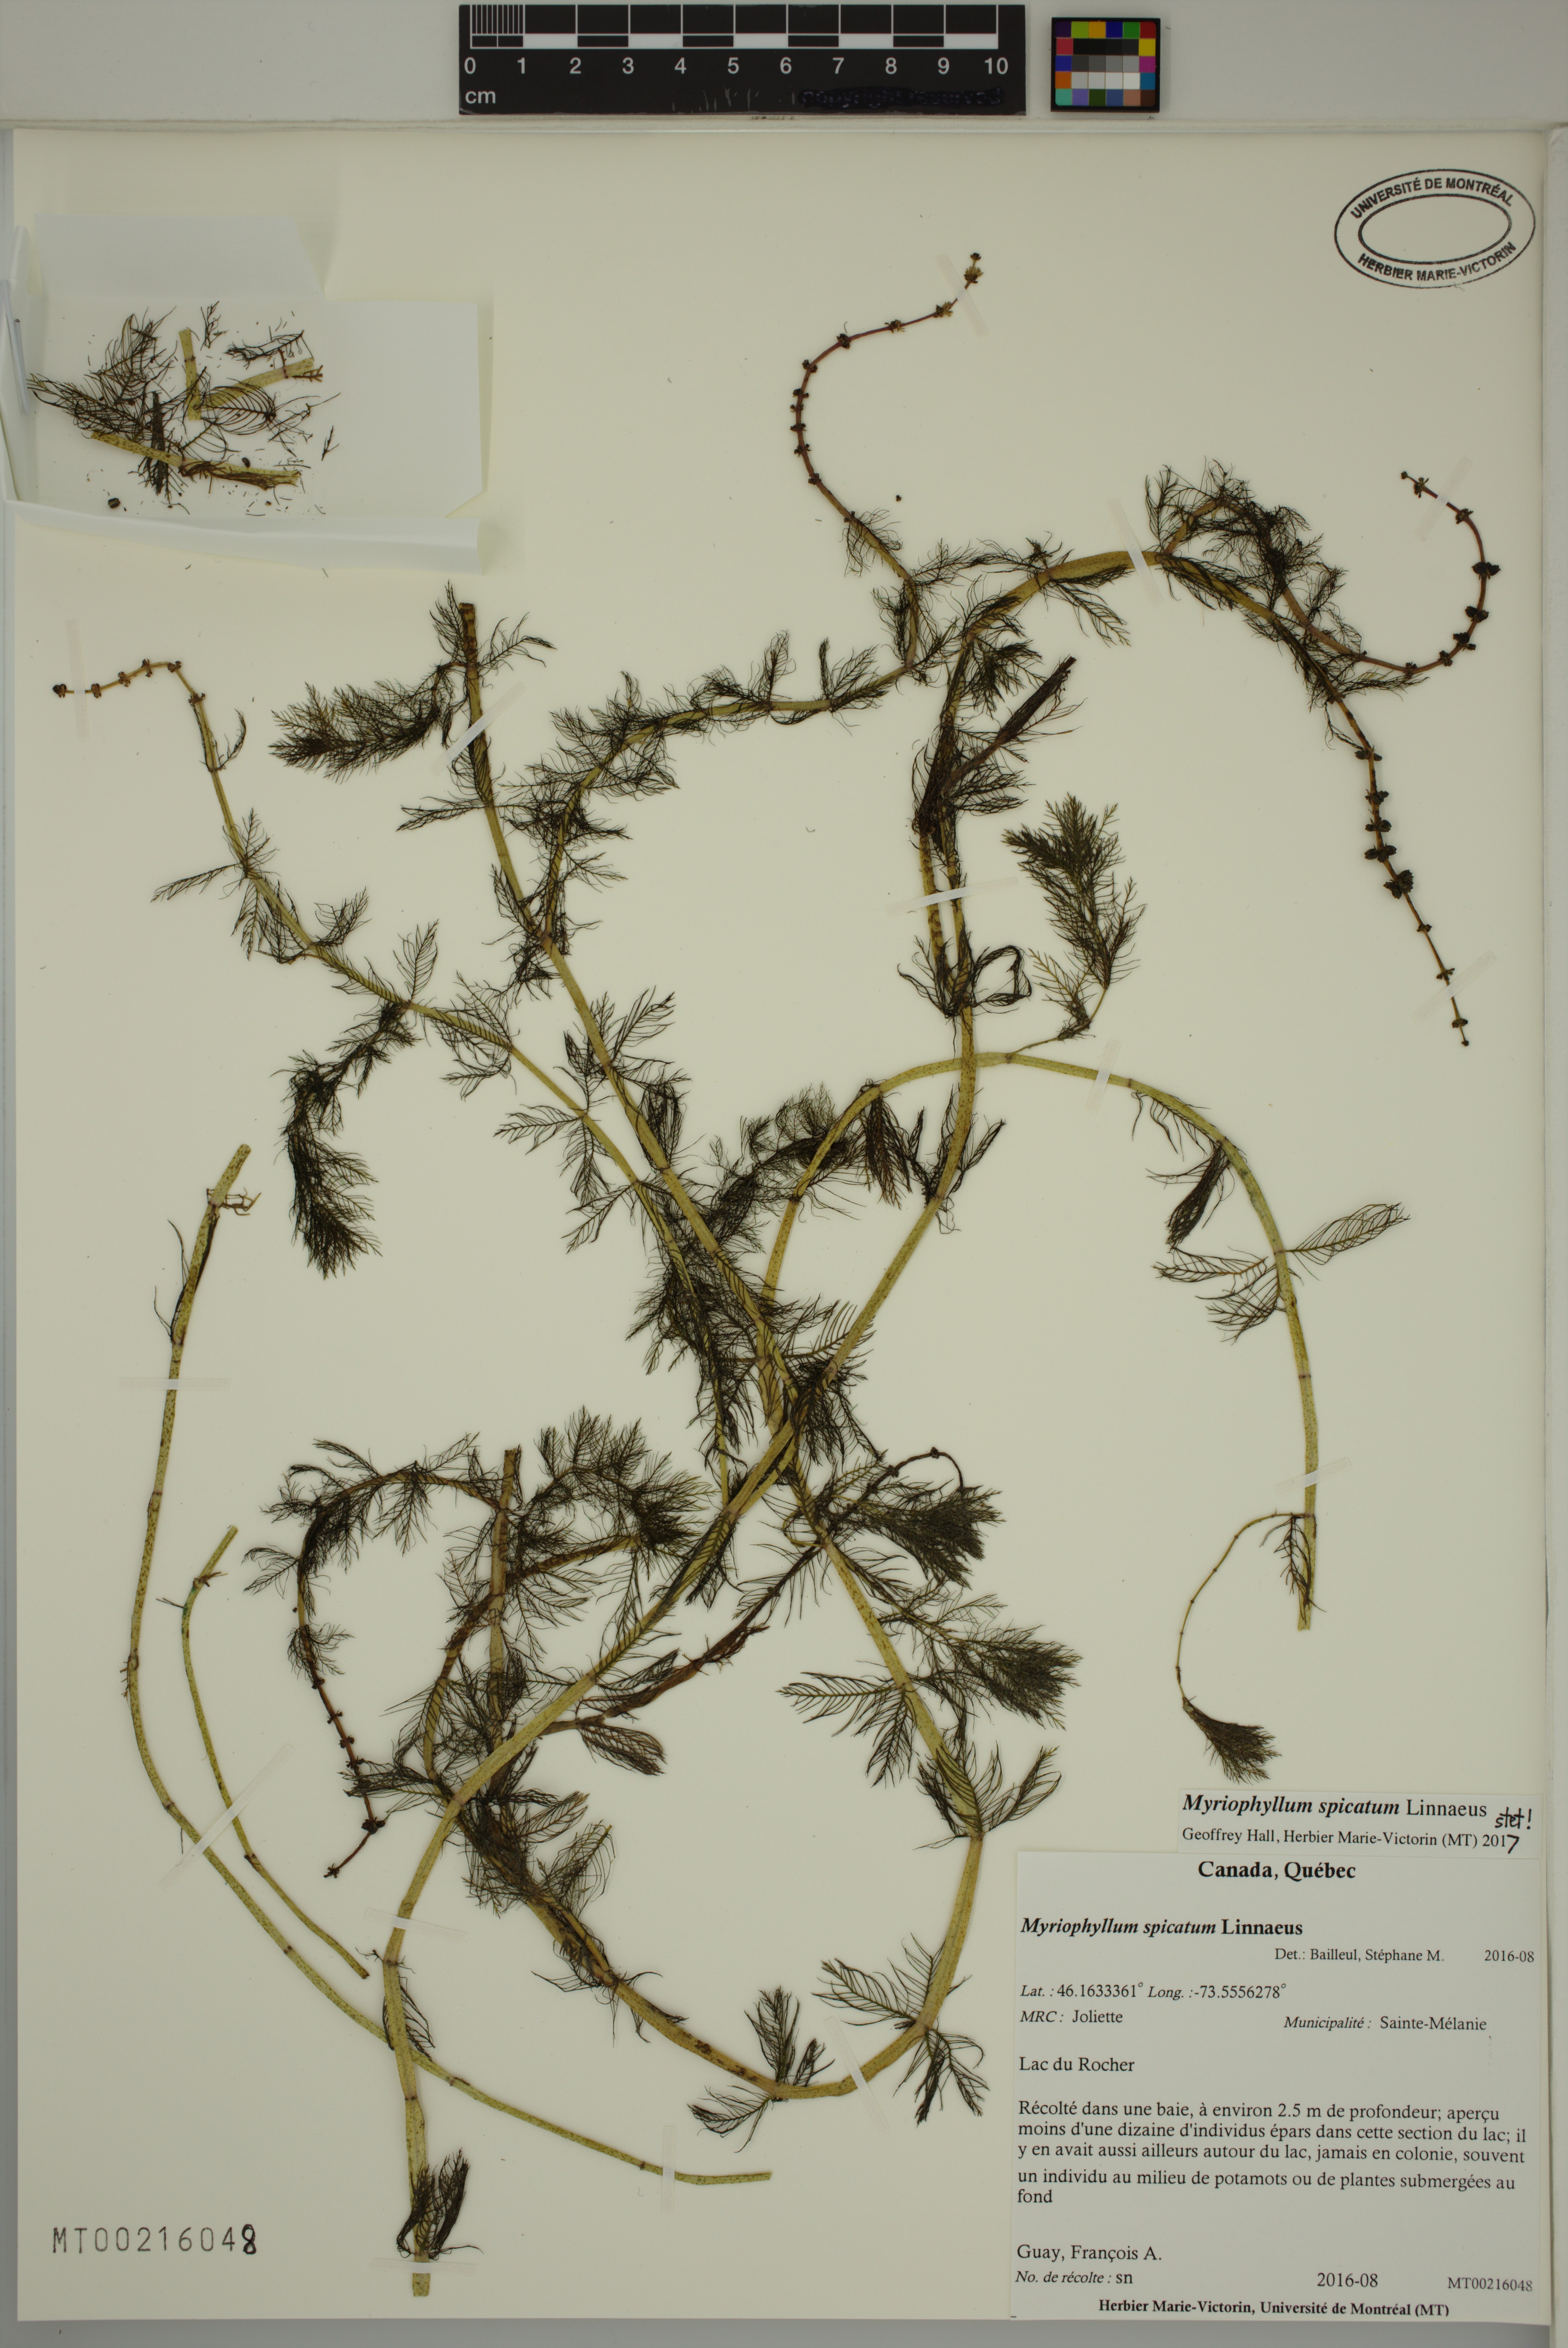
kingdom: Plantae
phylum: Tracheophyta
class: Magnoliopsida
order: Saxifragales
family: Haloragaceae
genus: Myriophyllum
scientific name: Myriophyllum spicatum
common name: Spiked water-milfoil
